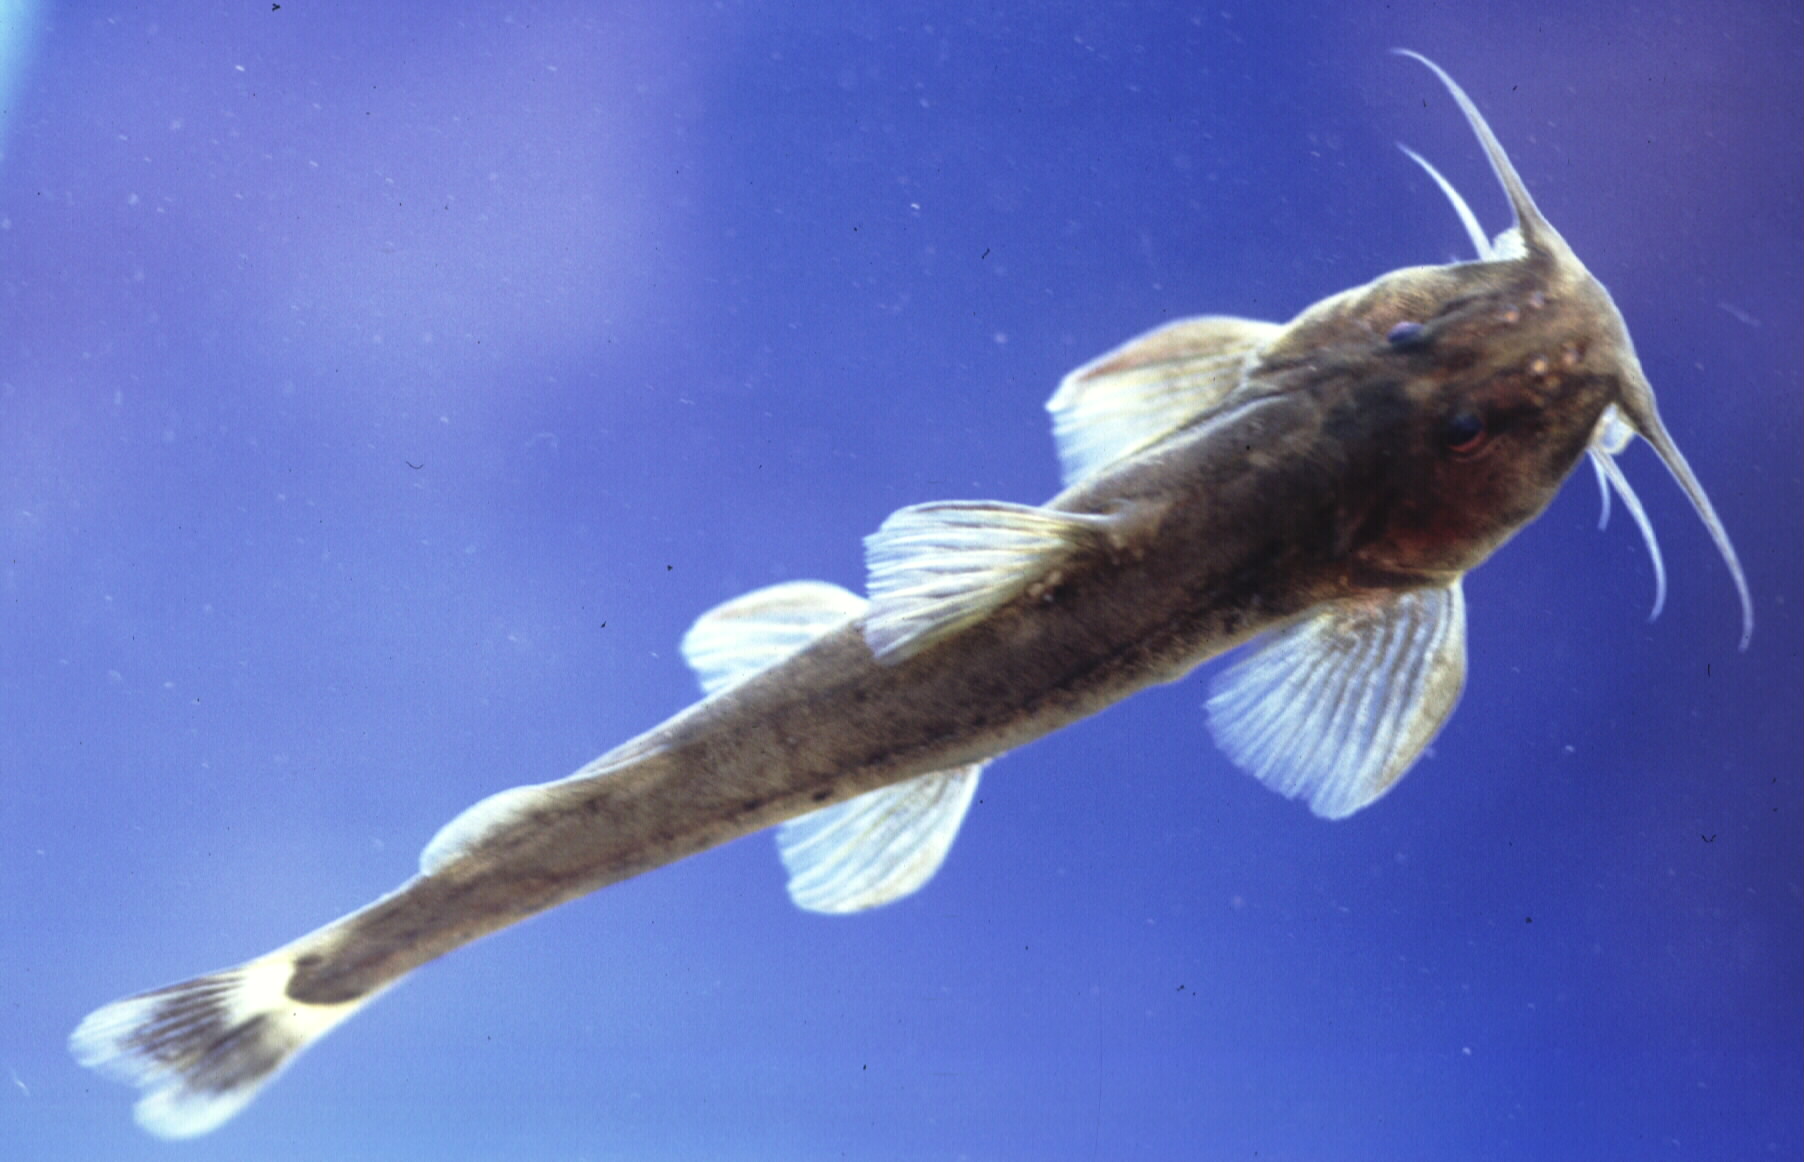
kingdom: Animalia
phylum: Chordata
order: Siluriformes
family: Amphiliidae
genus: Amphilius
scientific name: Amphilius uranoscopus
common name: Stargazer mountain catfish
